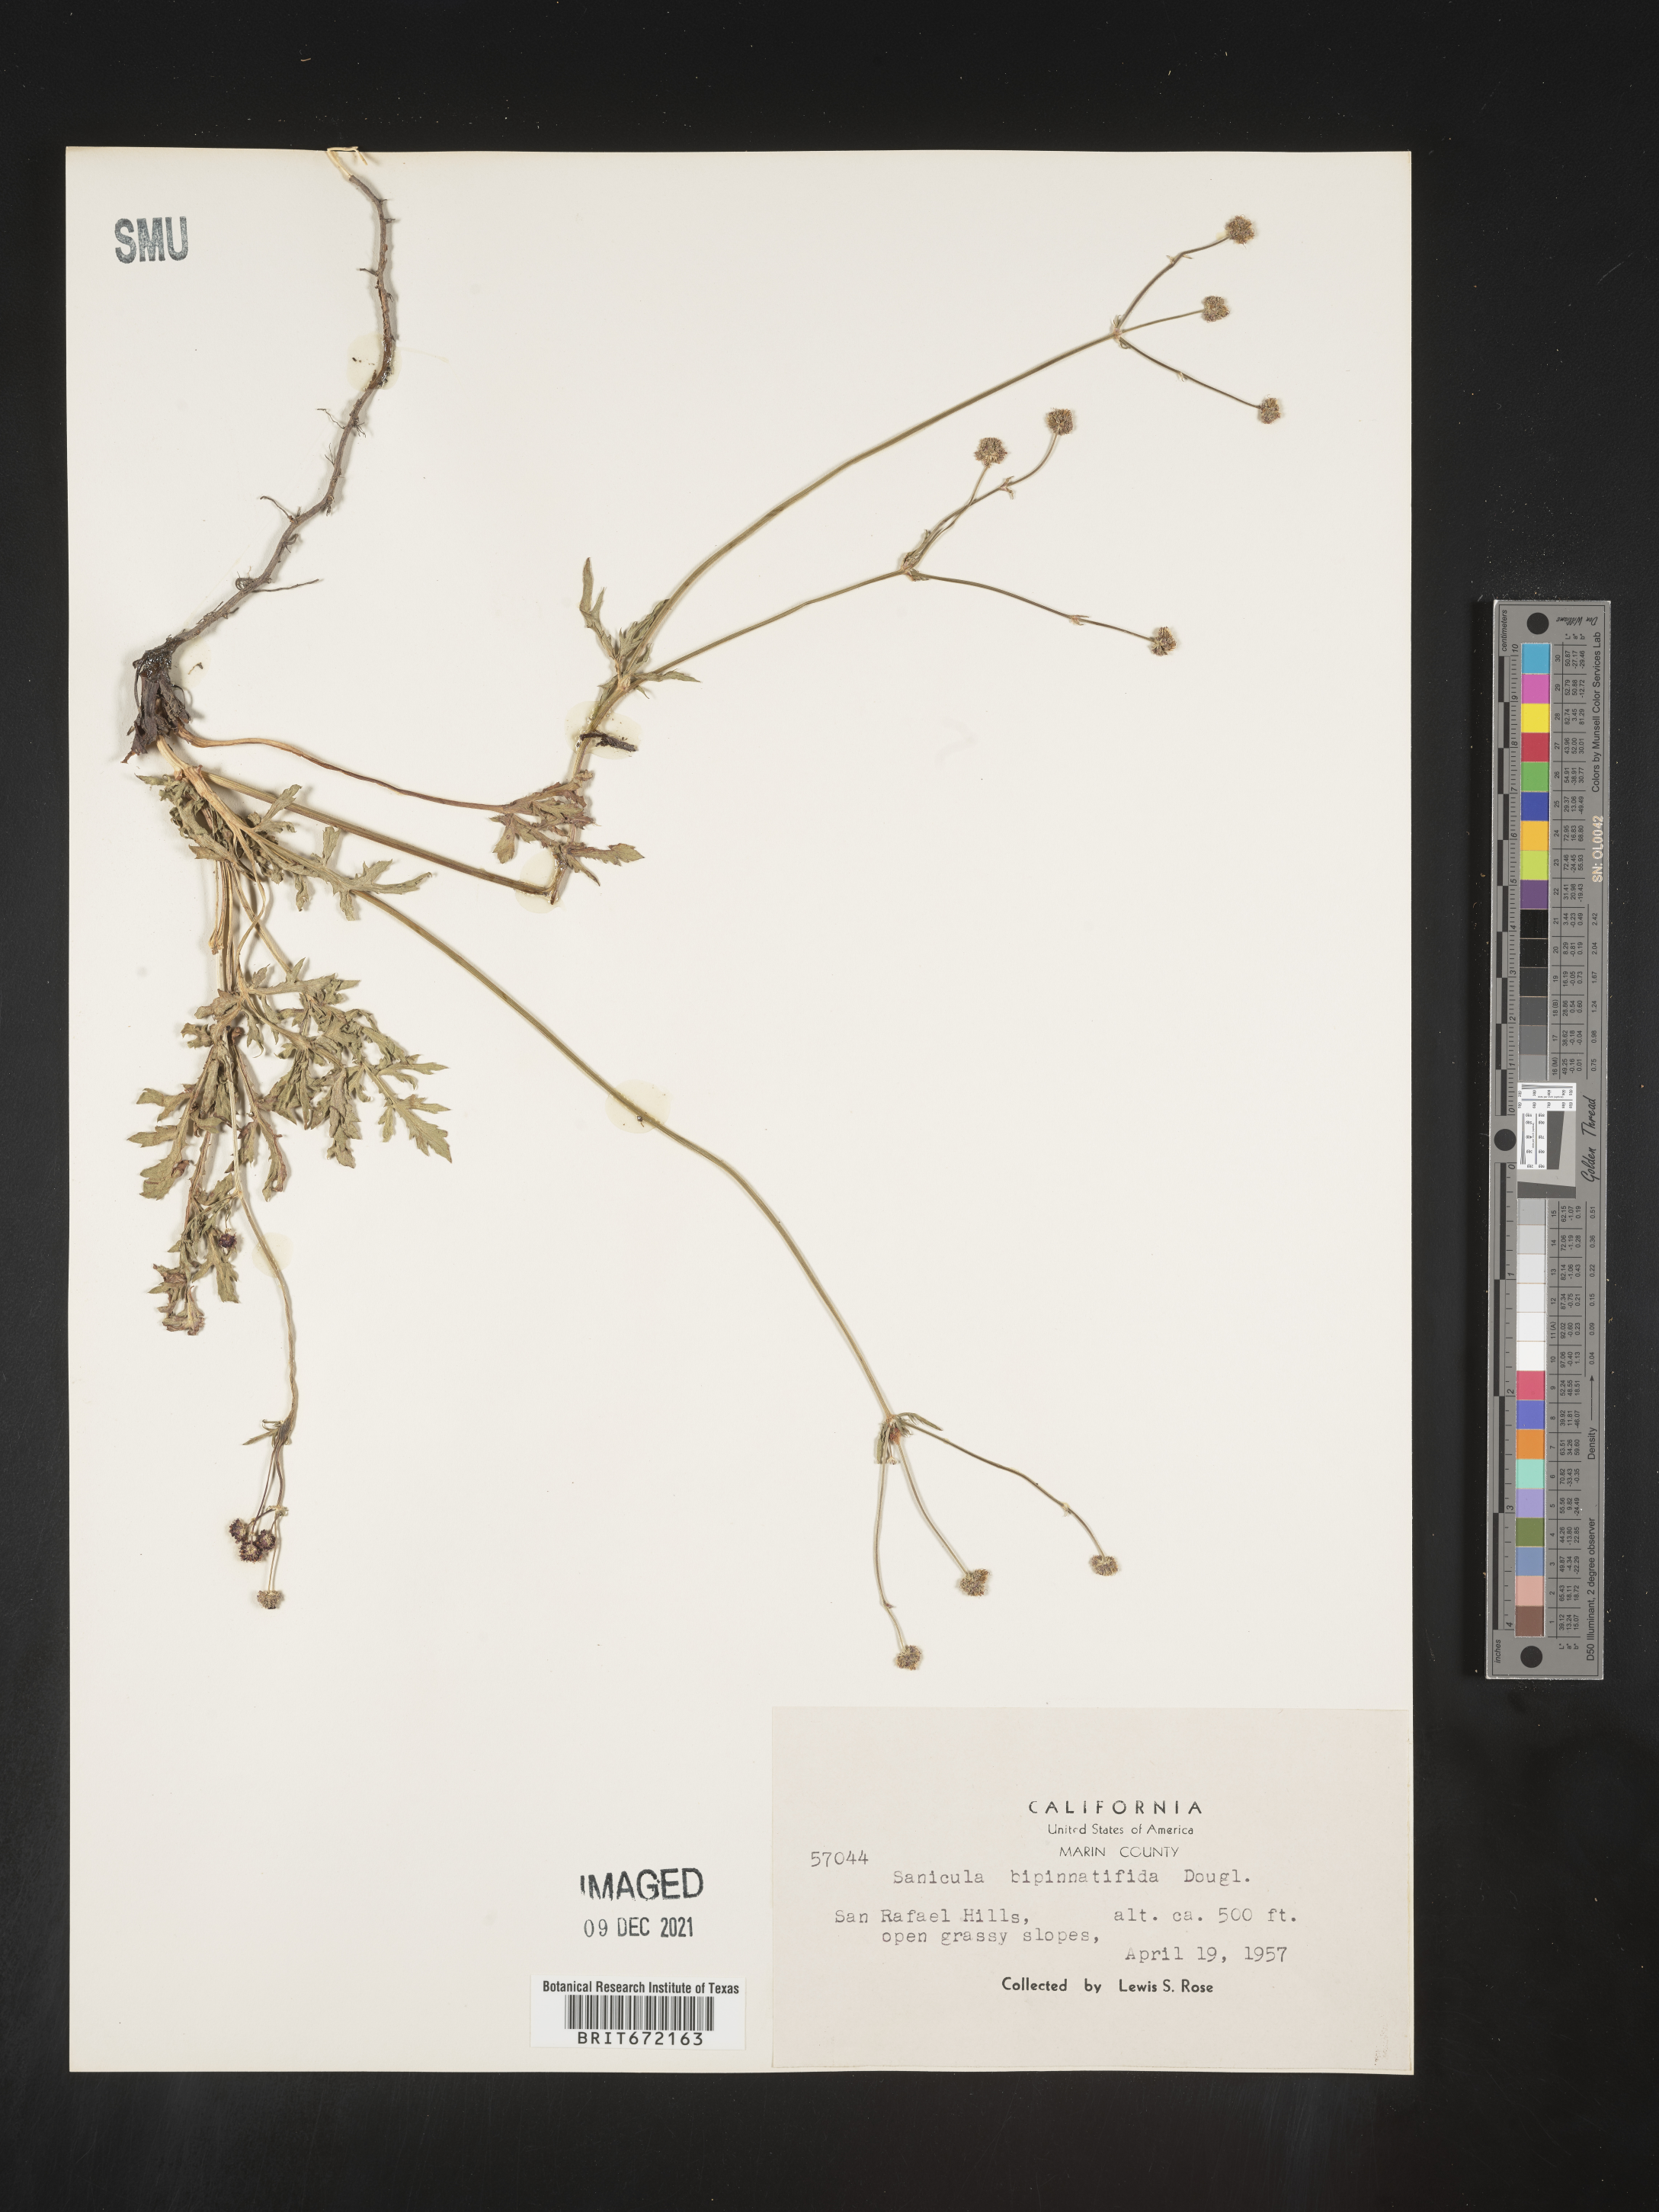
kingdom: Plantae
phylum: Tracheophyta
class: Magnoliopsida
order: Apiales
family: Apiaceae
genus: Sanicula
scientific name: Sanicula
